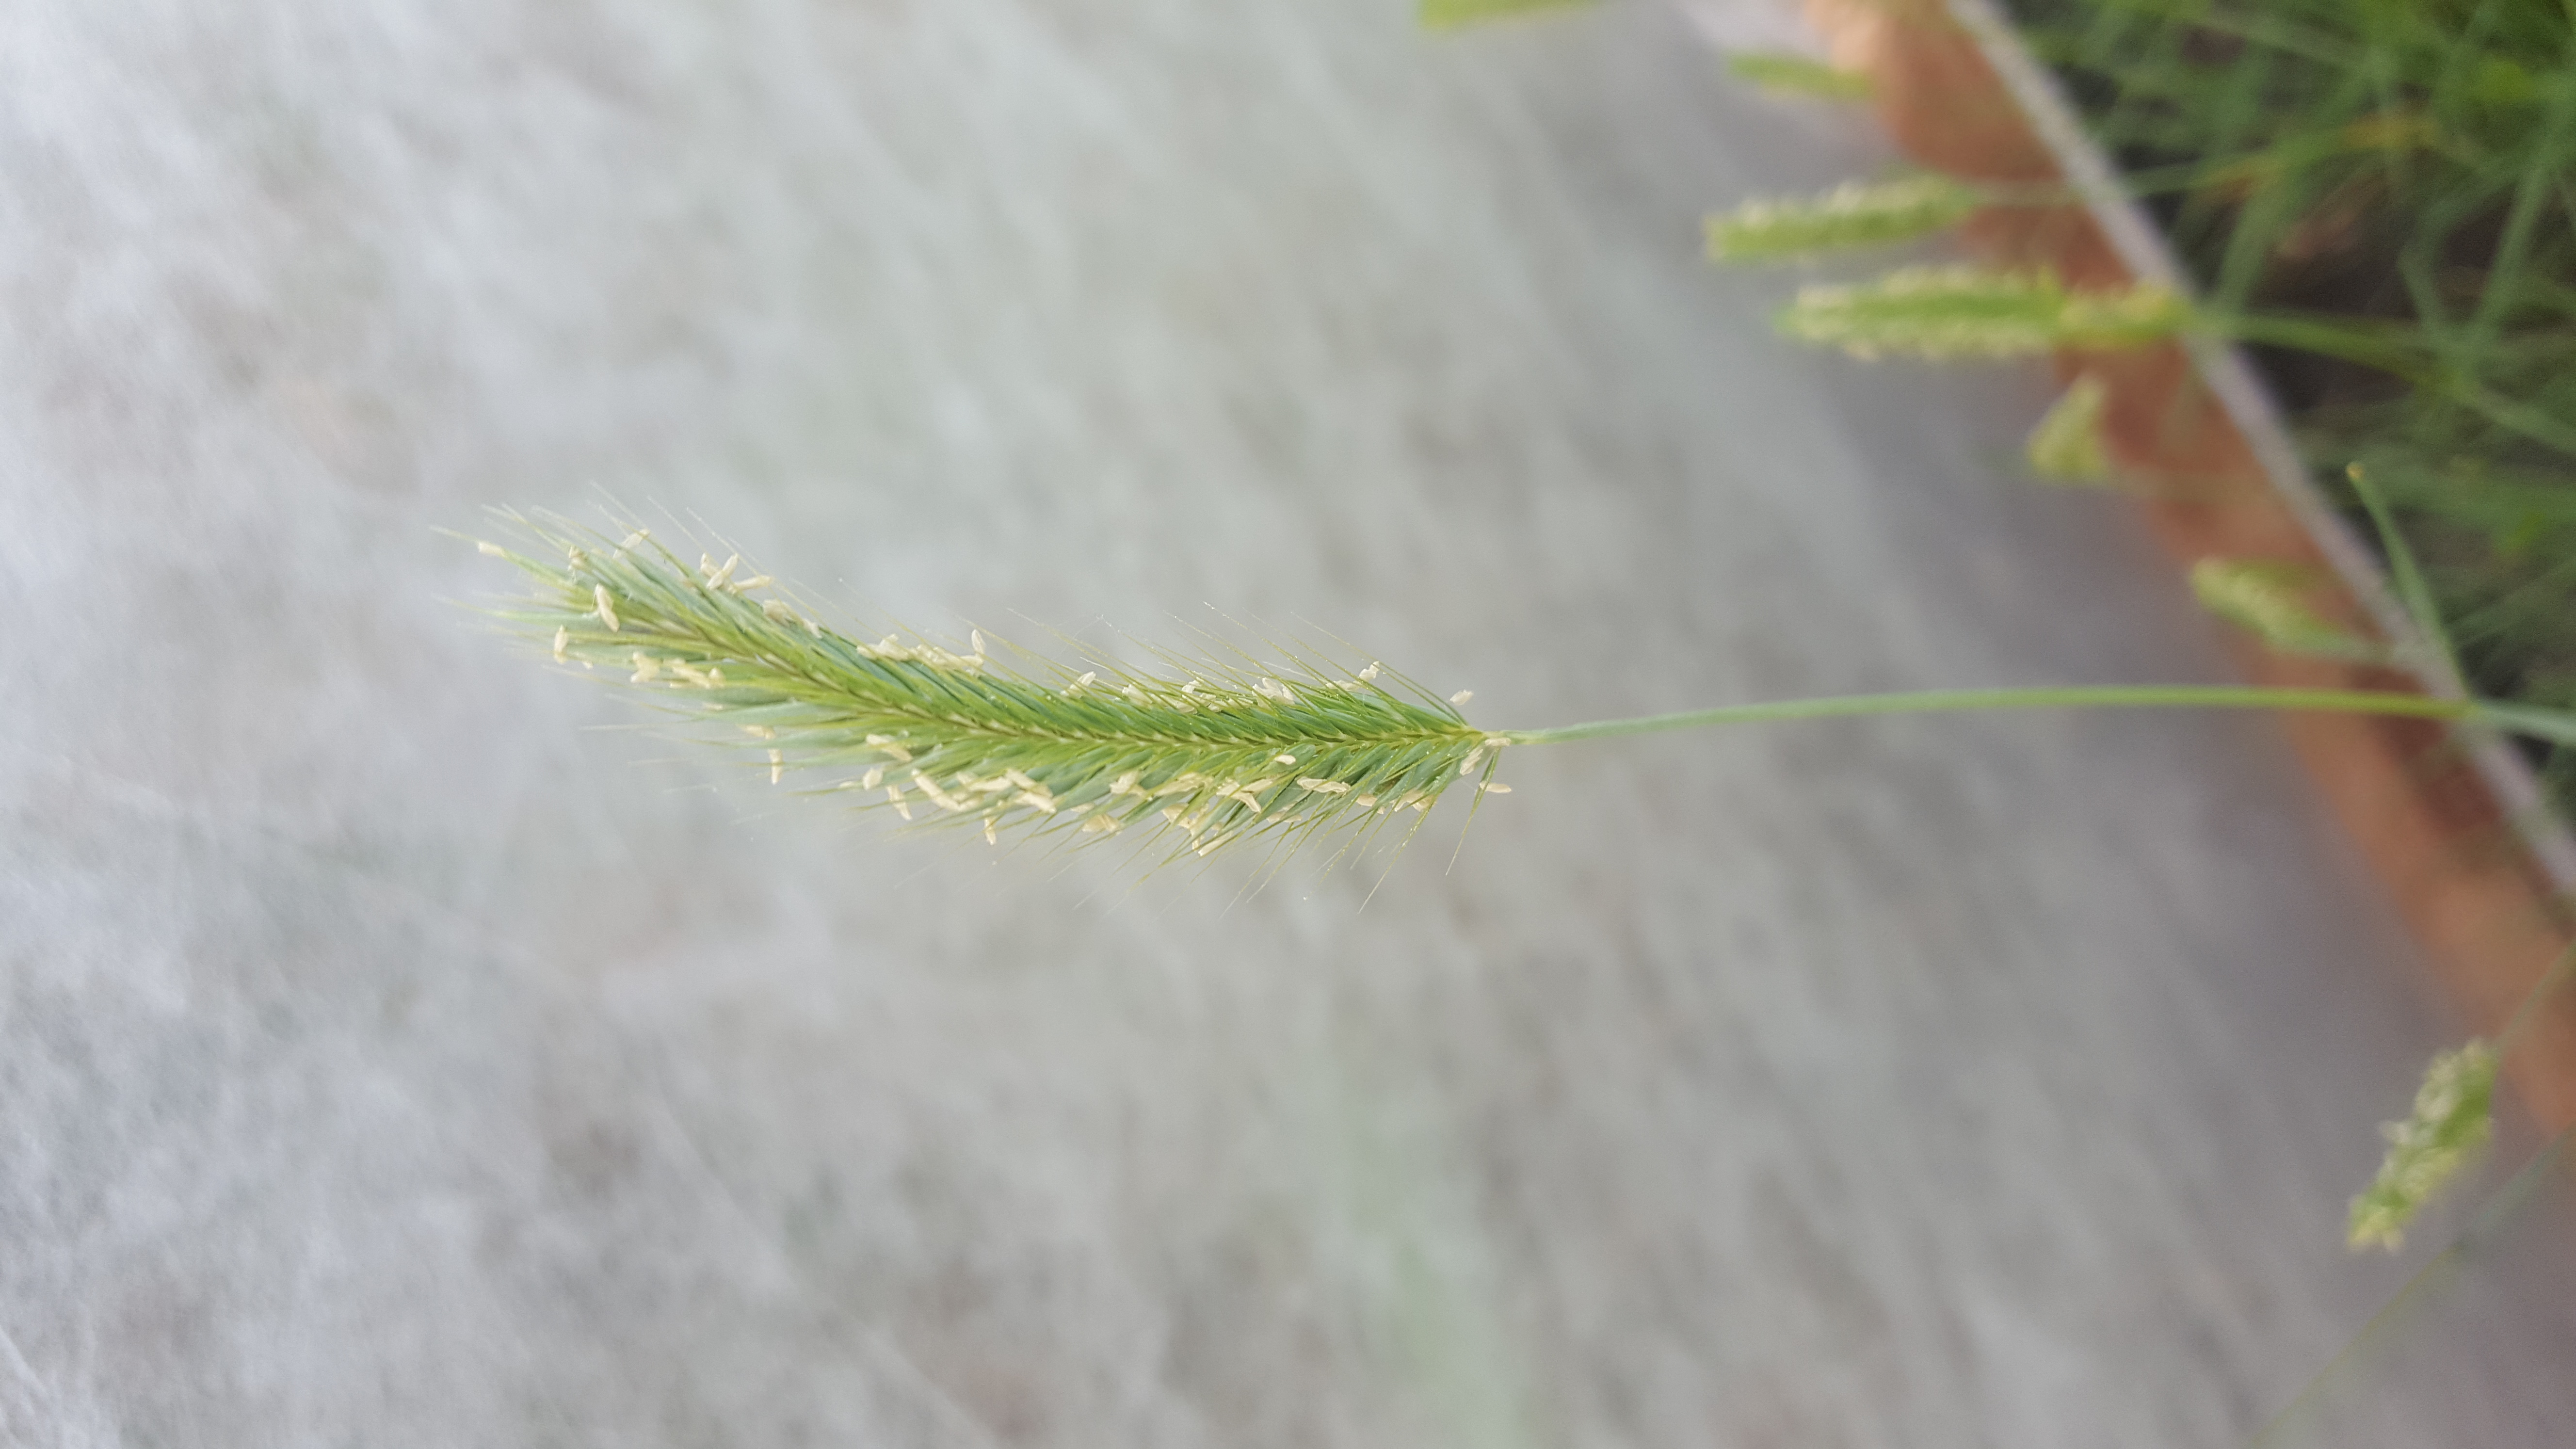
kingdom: Plantae
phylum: Tracheophyta
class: Liliopsida
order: Poales
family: Poaceae
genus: Hordeum
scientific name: Hordeum patagonicum
